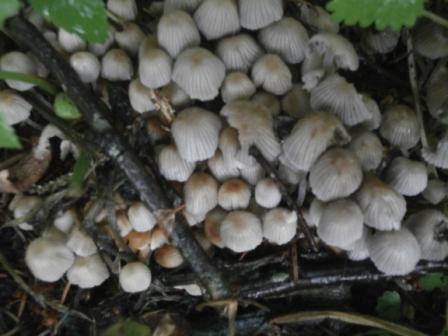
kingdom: Fungi
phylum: Basidiomycota
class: Agaricomycetes
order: Agaricales
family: Psathyrellaceae
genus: Coprinellus
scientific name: Coprinellus disseminatus
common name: bredsået blækhat
